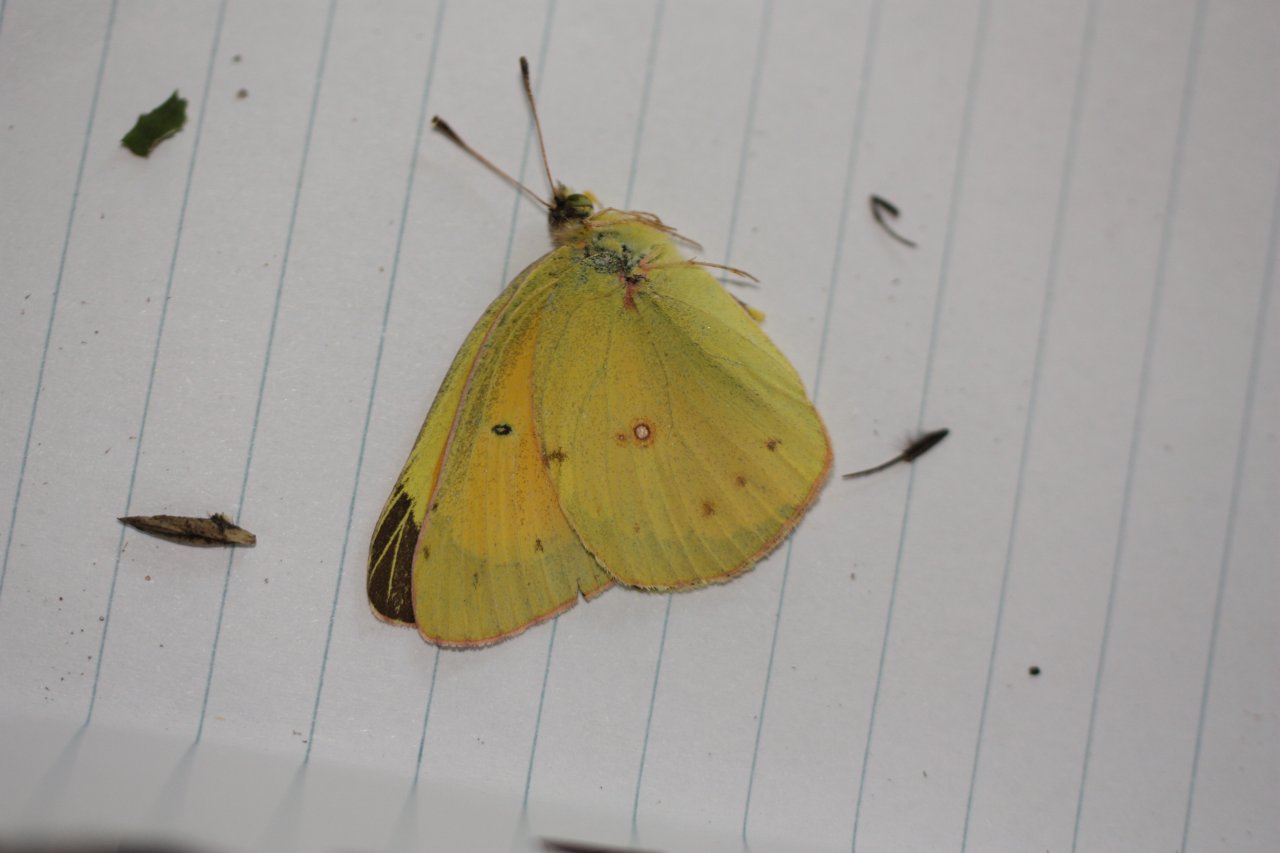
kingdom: Animalia
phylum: Arthropoda
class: Insecta
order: Lepidoptera
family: Pieridae
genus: Colias
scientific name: Colias eurytheme
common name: Orange Sulphur
